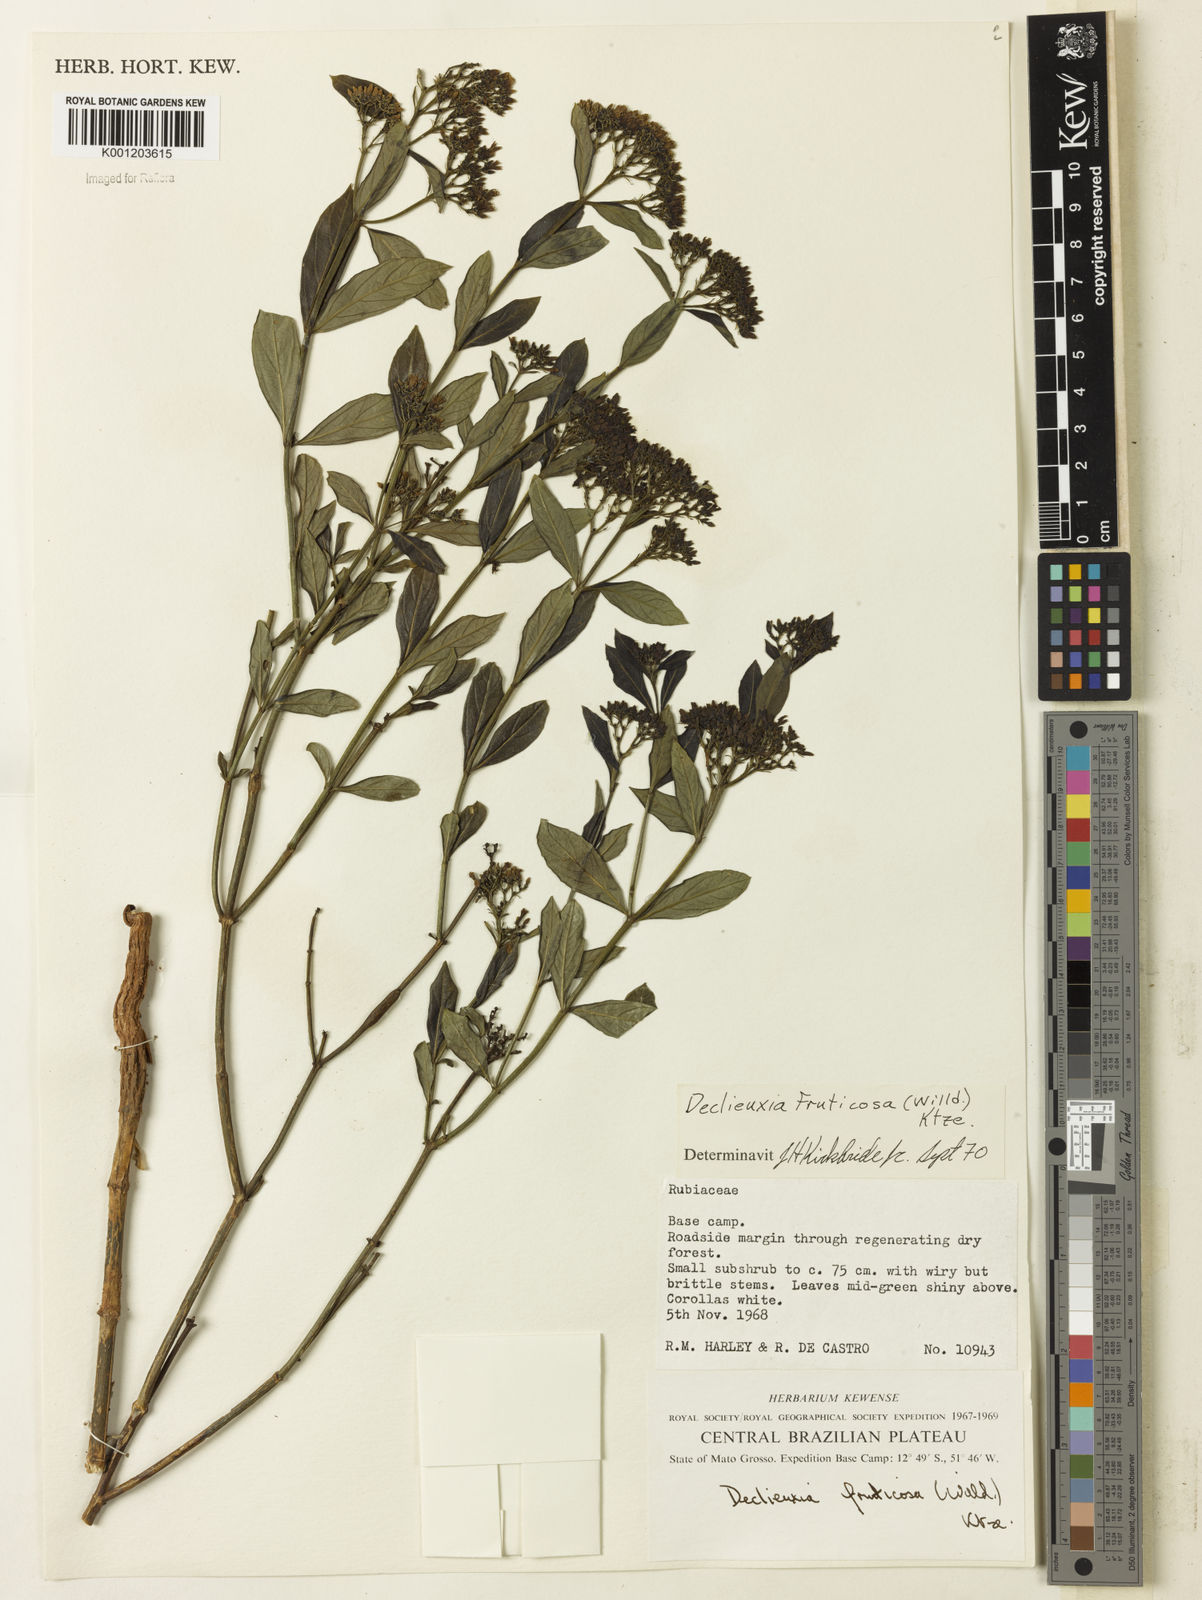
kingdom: Plantae
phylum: Tracheophyta
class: Magnoliopsida
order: Gentianales
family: Rubiaceae
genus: Declieuxia
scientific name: Declieuxia fruticosa
